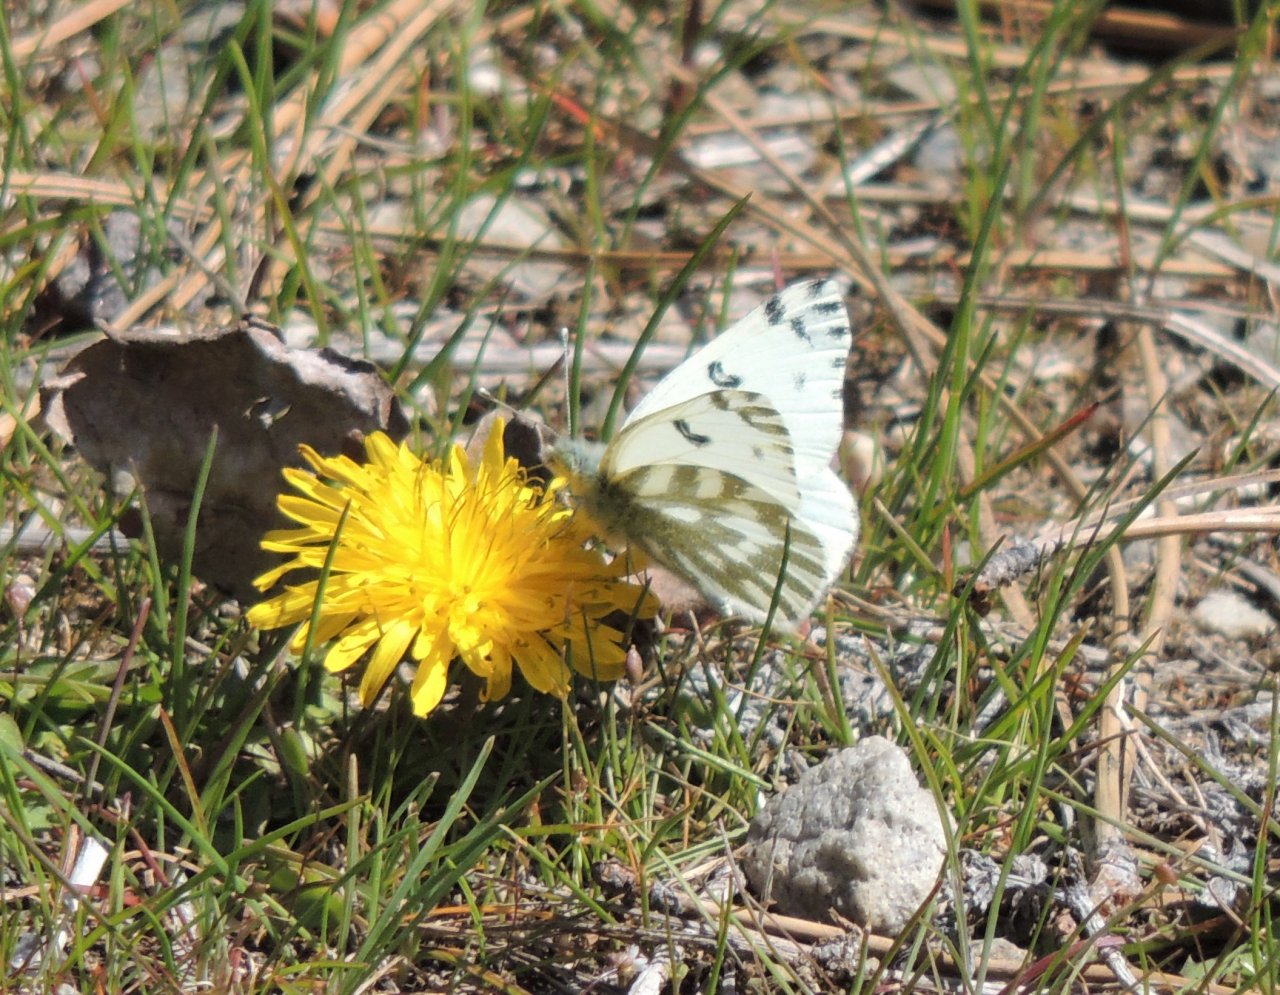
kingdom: Animalia
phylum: Arthropoda
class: Insecta
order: Lepidoptera
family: Pieridae
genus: Pontia
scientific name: Pontia beckerii
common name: Becker's White
